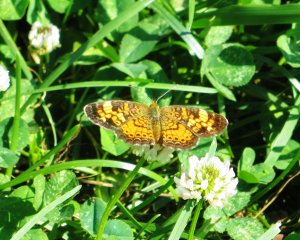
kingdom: Animalia
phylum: Arthropoda
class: Insecta
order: Lepidoptera
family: Nymphalidae
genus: Phyciodes
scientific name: Phyciodes tharos
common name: Pearl Crescent
